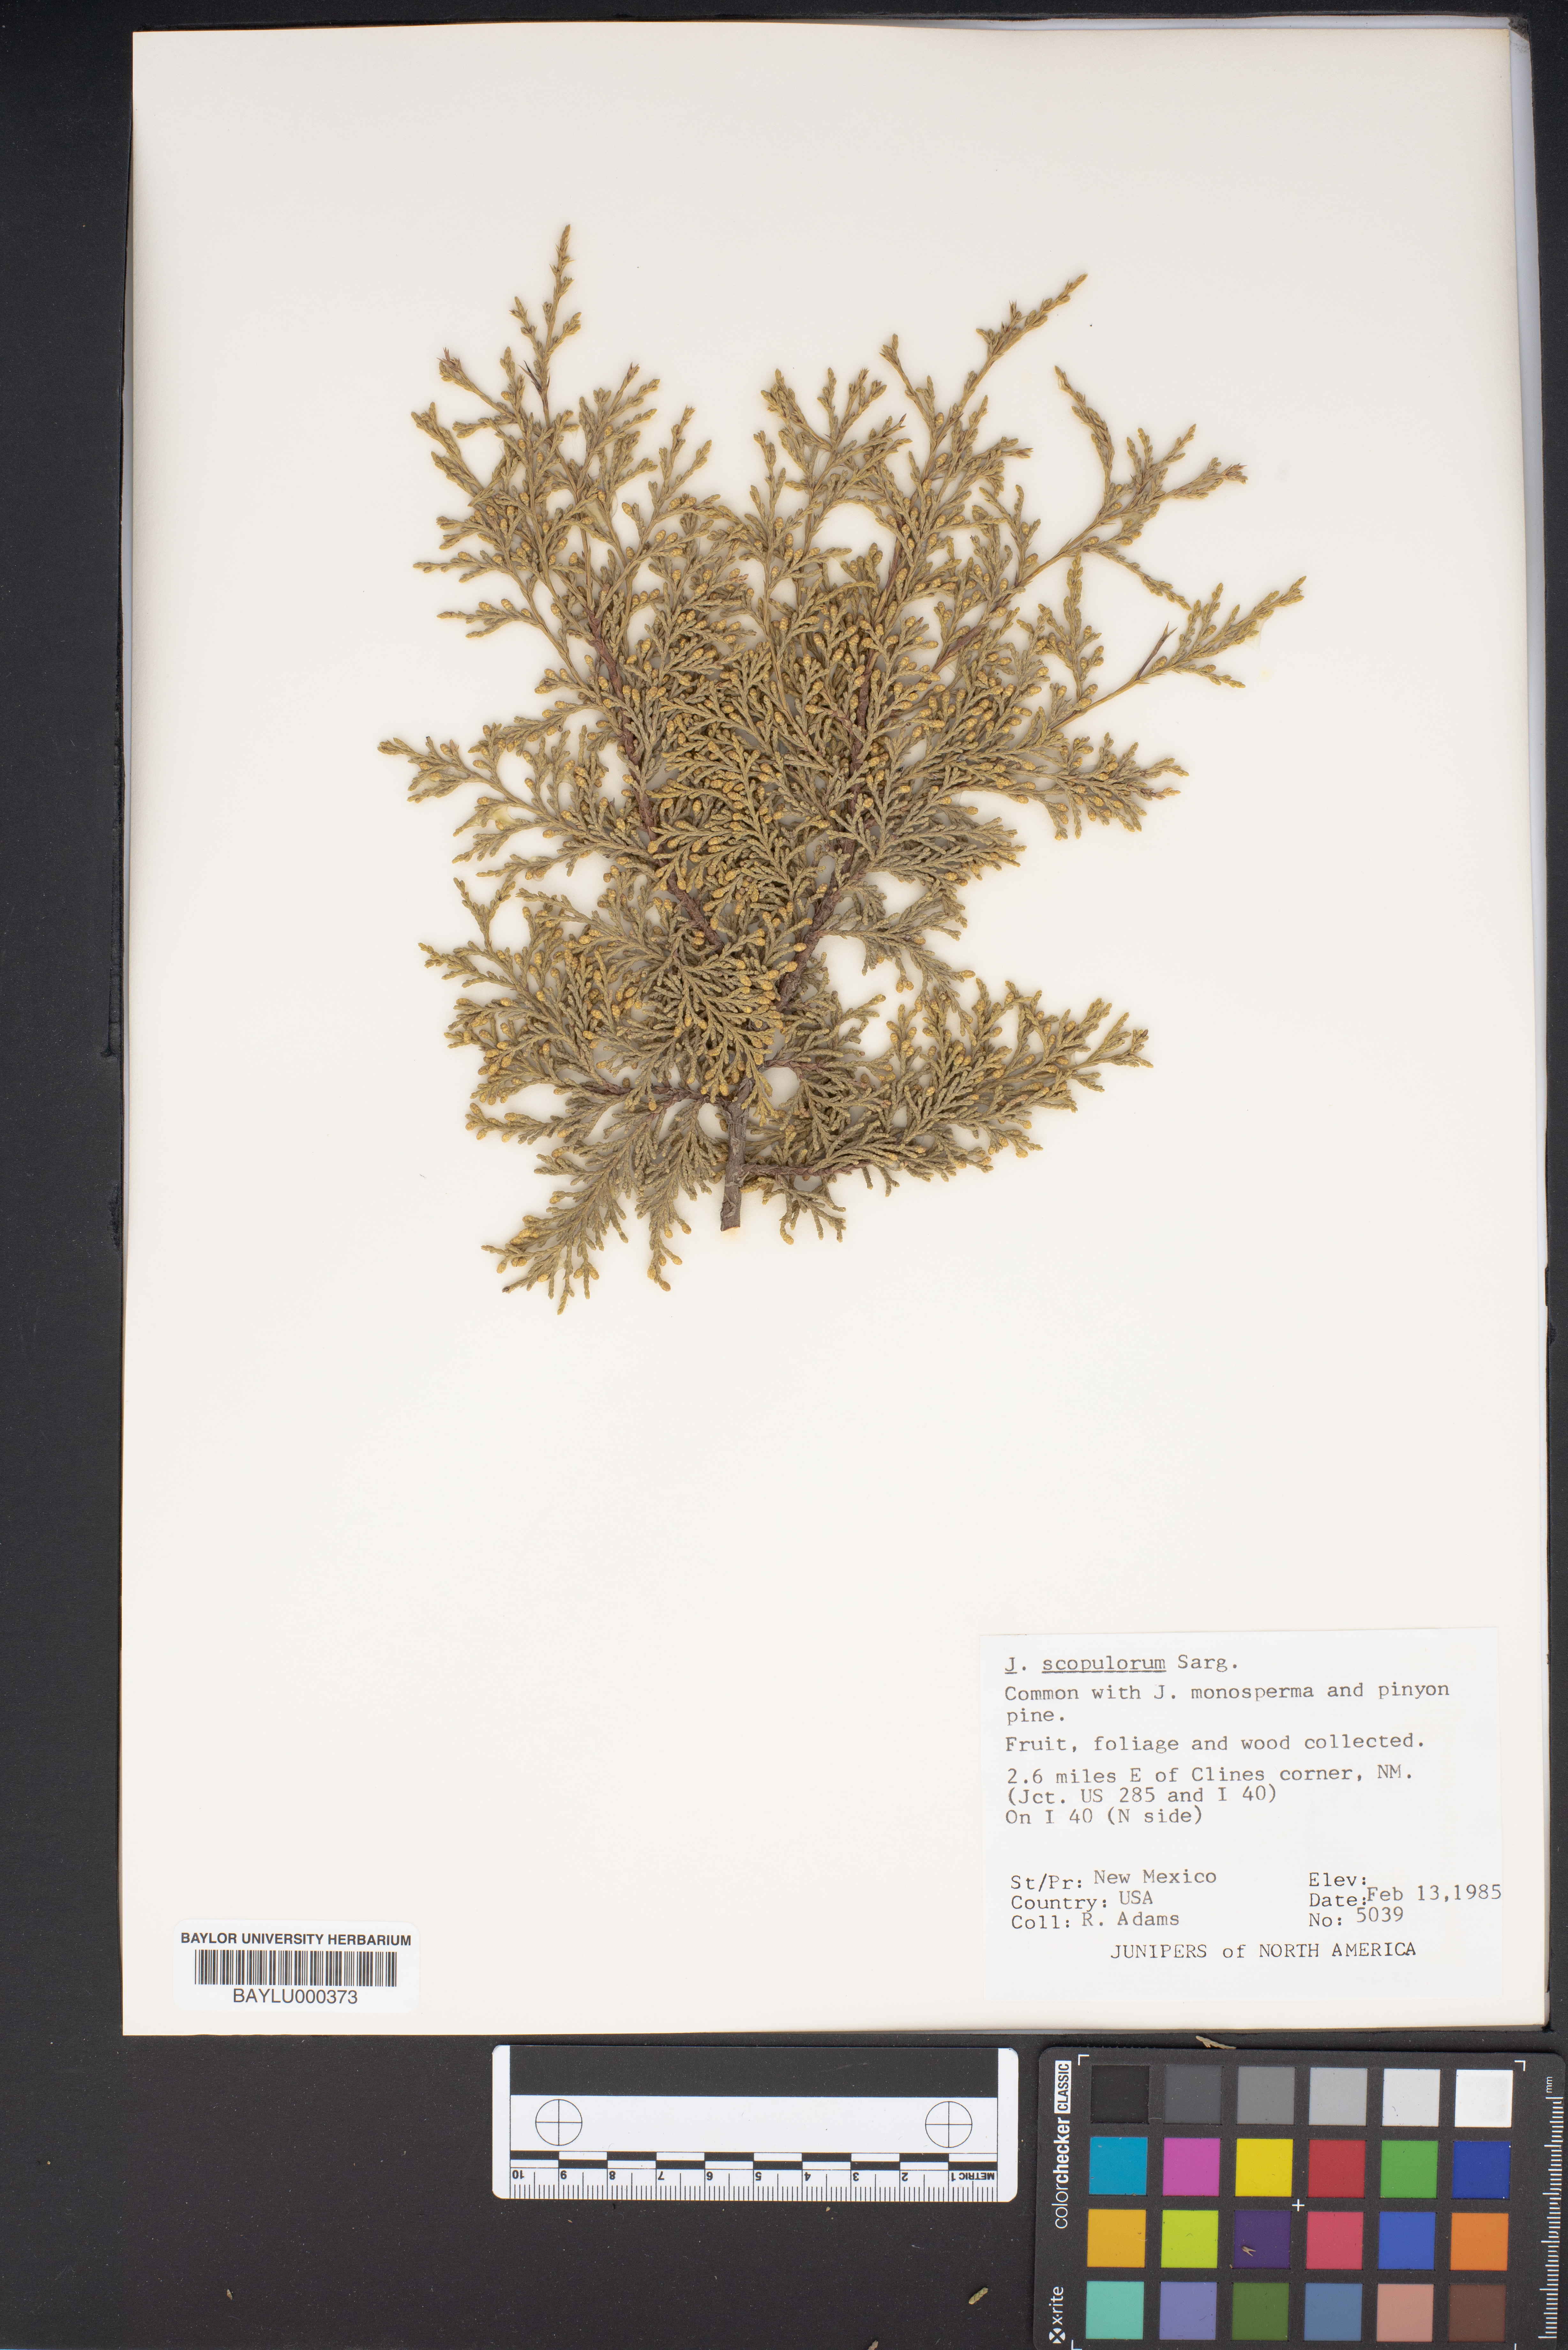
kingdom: Plantae
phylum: Tracheophyta
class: Pinopsida
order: Pinales
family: Cupressaceae
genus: Juniperus
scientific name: Juniperus scopulorum
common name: Rocky mountain juniper
